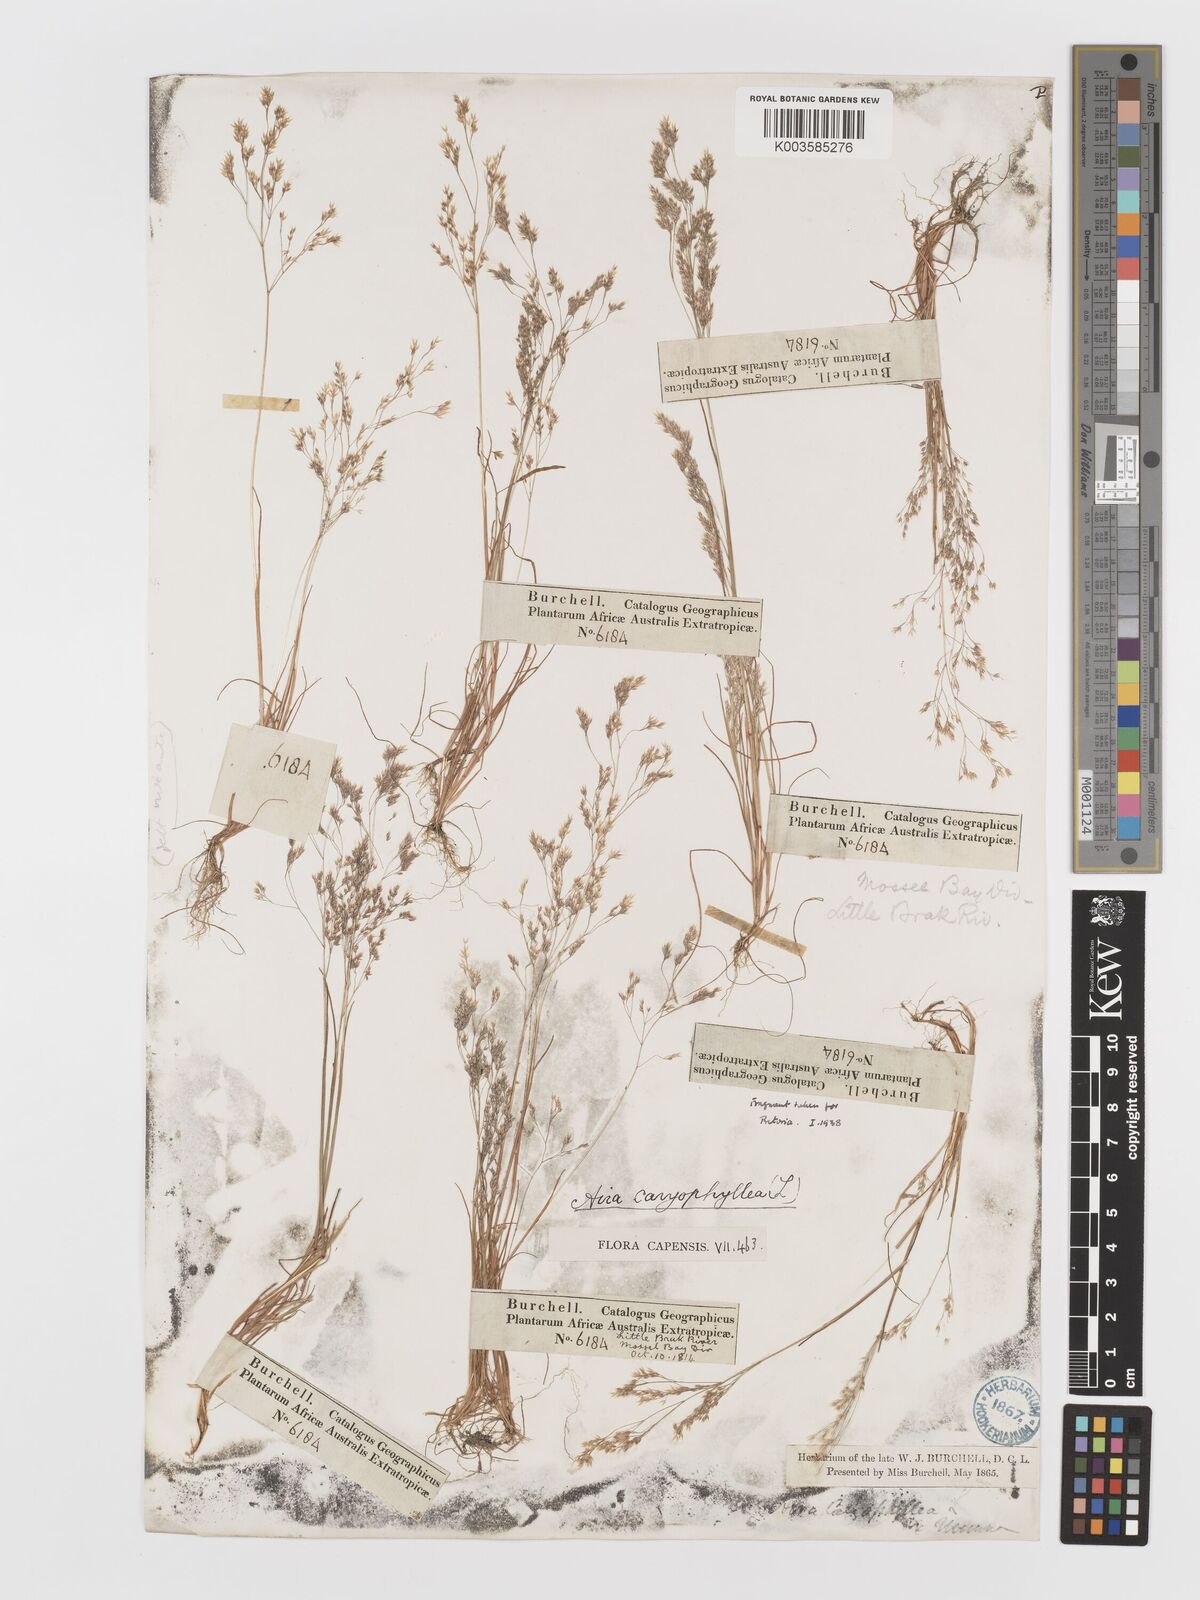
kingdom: Plantae
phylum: Tracheophyta
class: Liliopsida
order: Poales
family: Poaceae
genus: Aira
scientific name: Aira cupaniana
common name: Silver hairgrass
